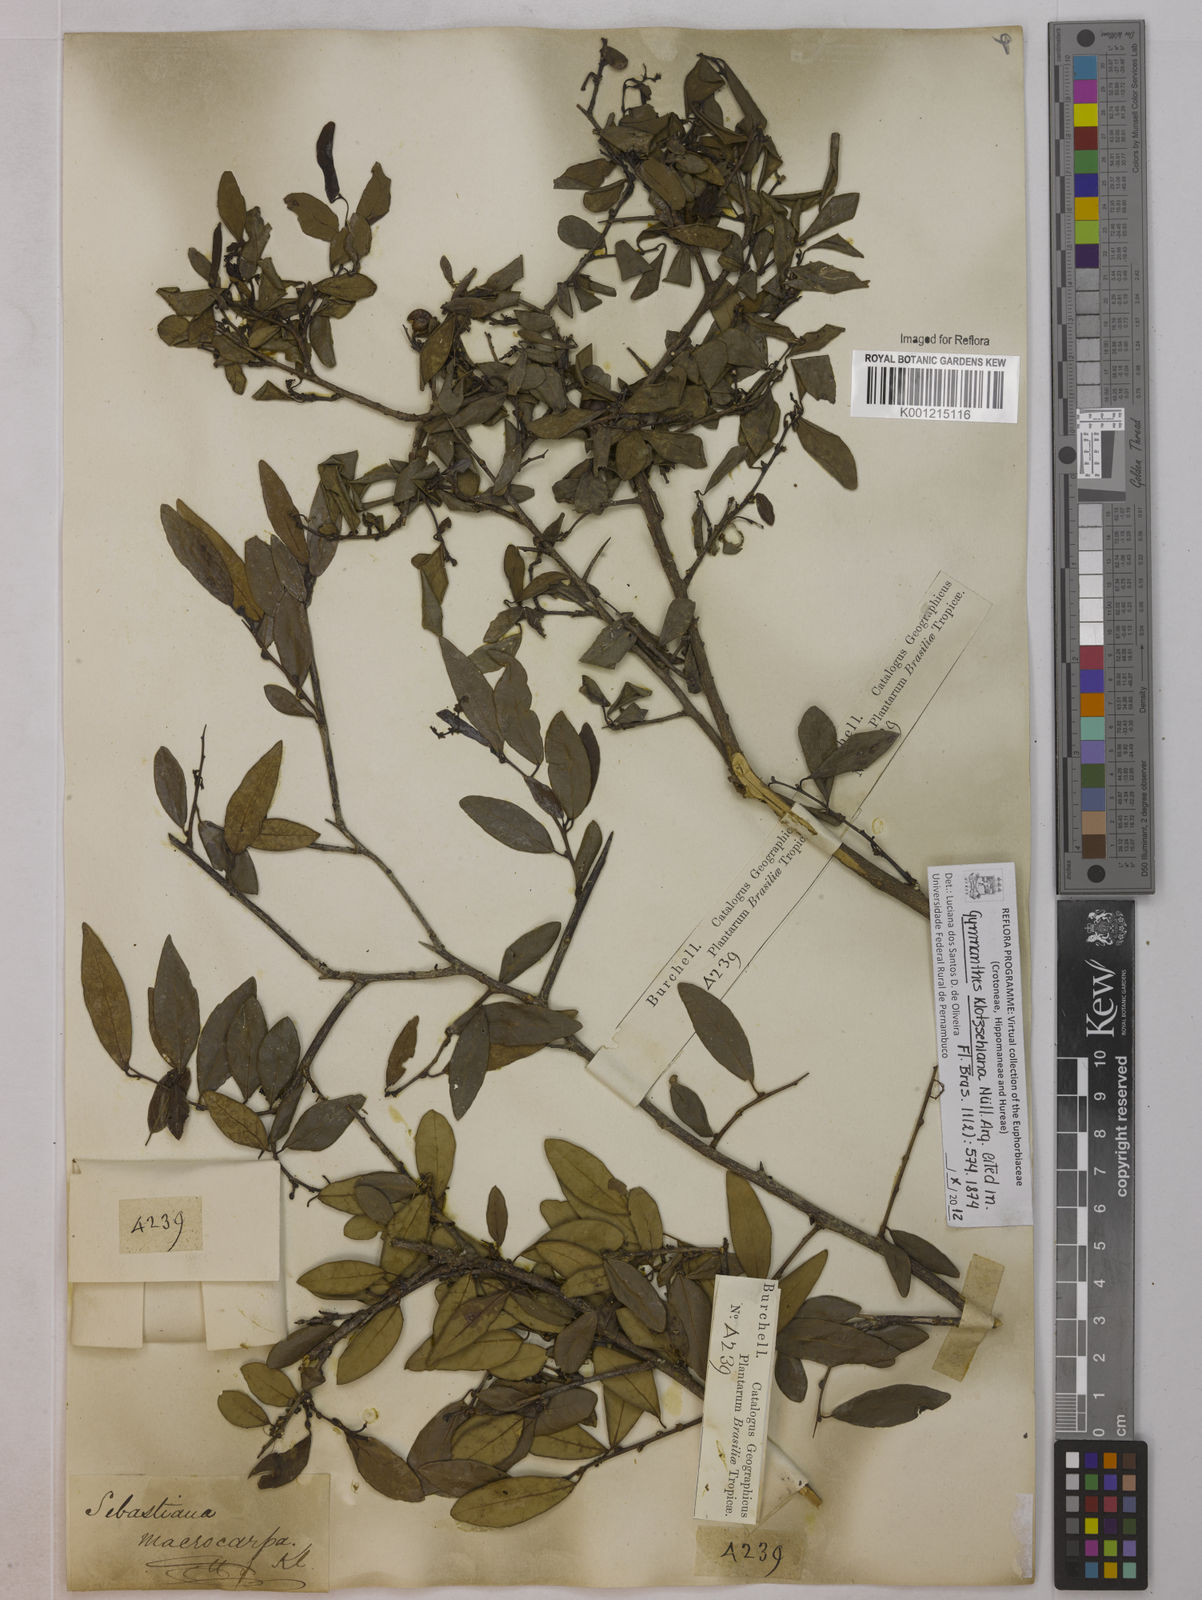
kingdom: Plantae
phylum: Tracheophyta
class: Magnoliopsida
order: Malpighiales
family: Euphorbiaceae
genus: Gymnanthes
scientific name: Gymnanthes
